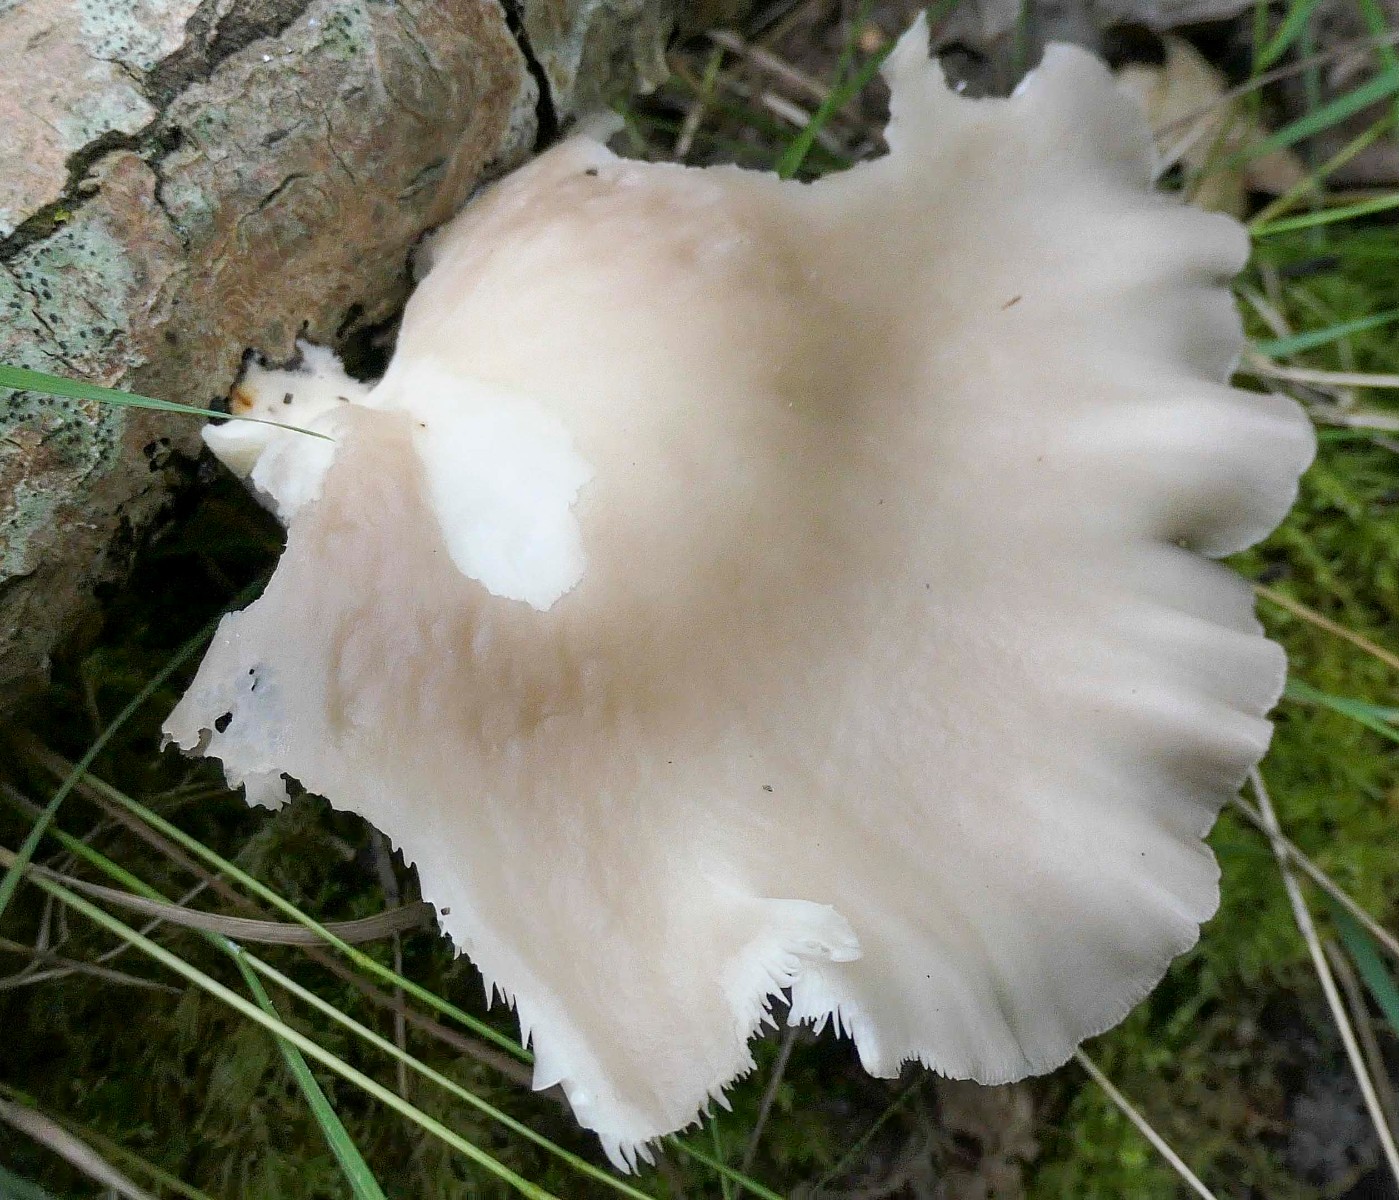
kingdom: Fungi
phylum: Basidiomycota
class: Agaricomycetes
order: Agaricales
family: Pleurotaceae
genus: Pleurotus
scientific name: Pleurotus pulmonarius
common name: sommer-østershat
